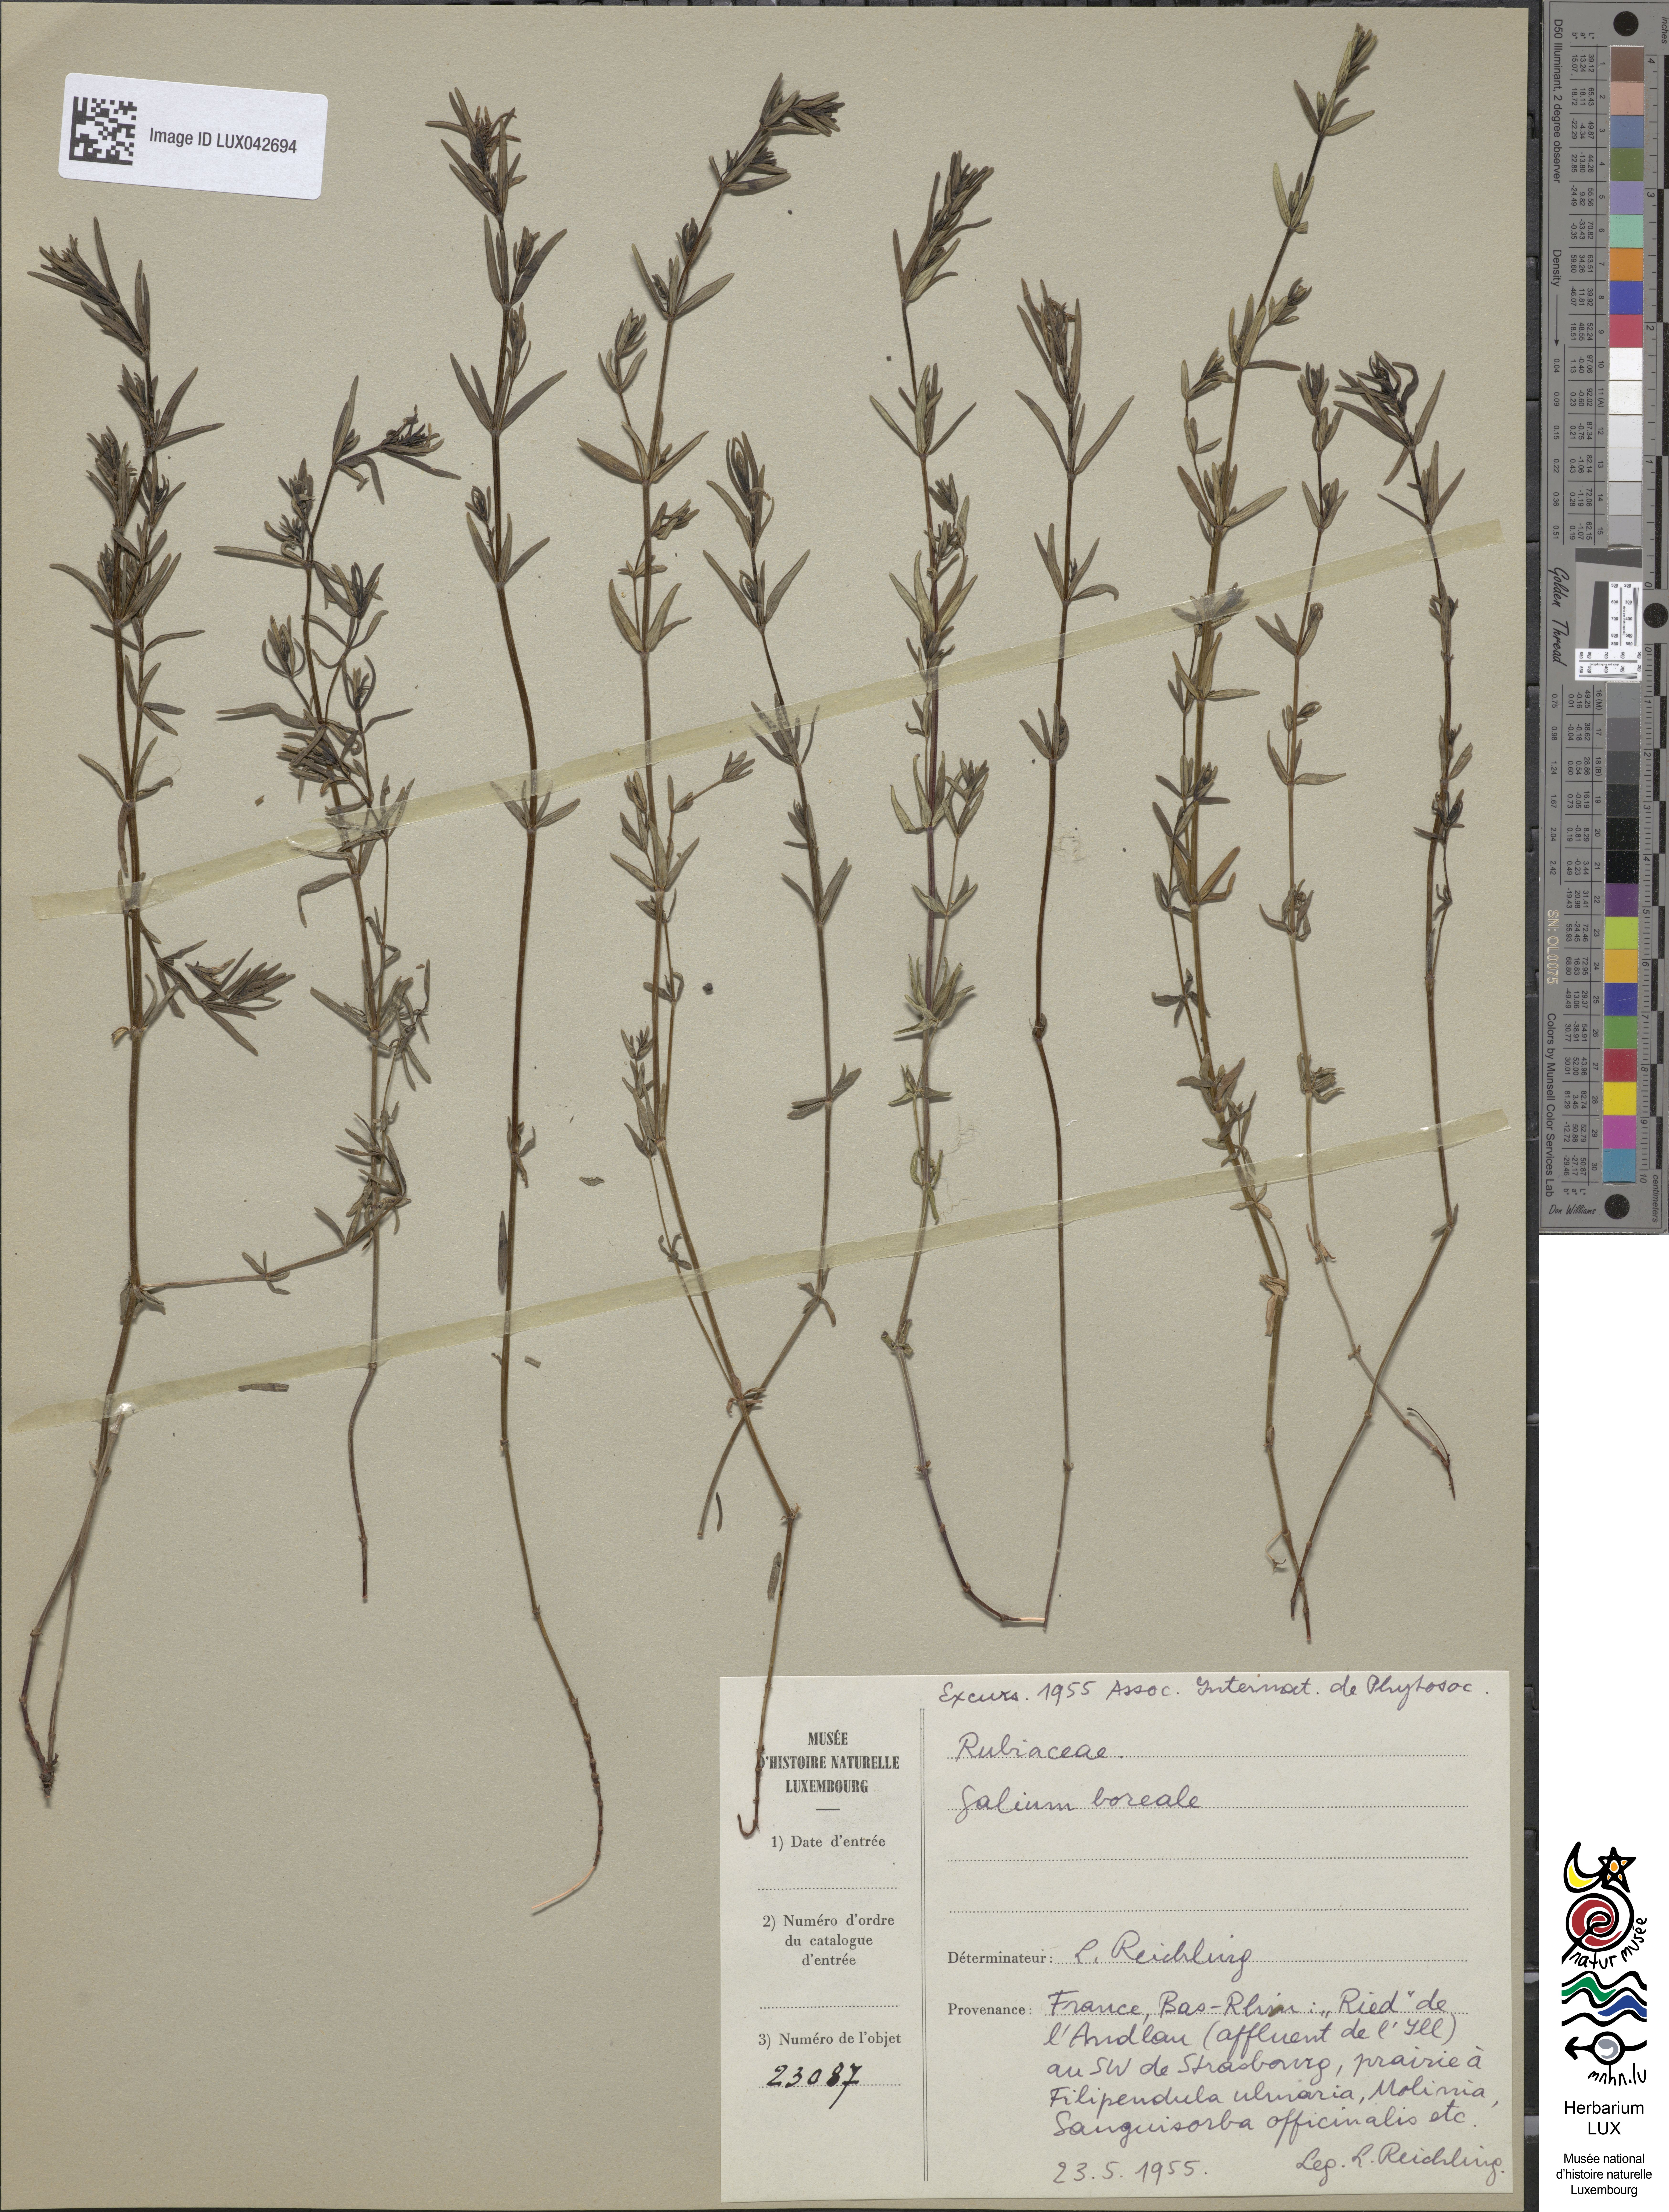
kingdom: Plantae
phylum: Tracheophyta
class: Magnoliopsida
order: Gentianales
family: Rubiaceae
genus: Galium
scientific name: Galium boreale
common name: Northern bedstraw
